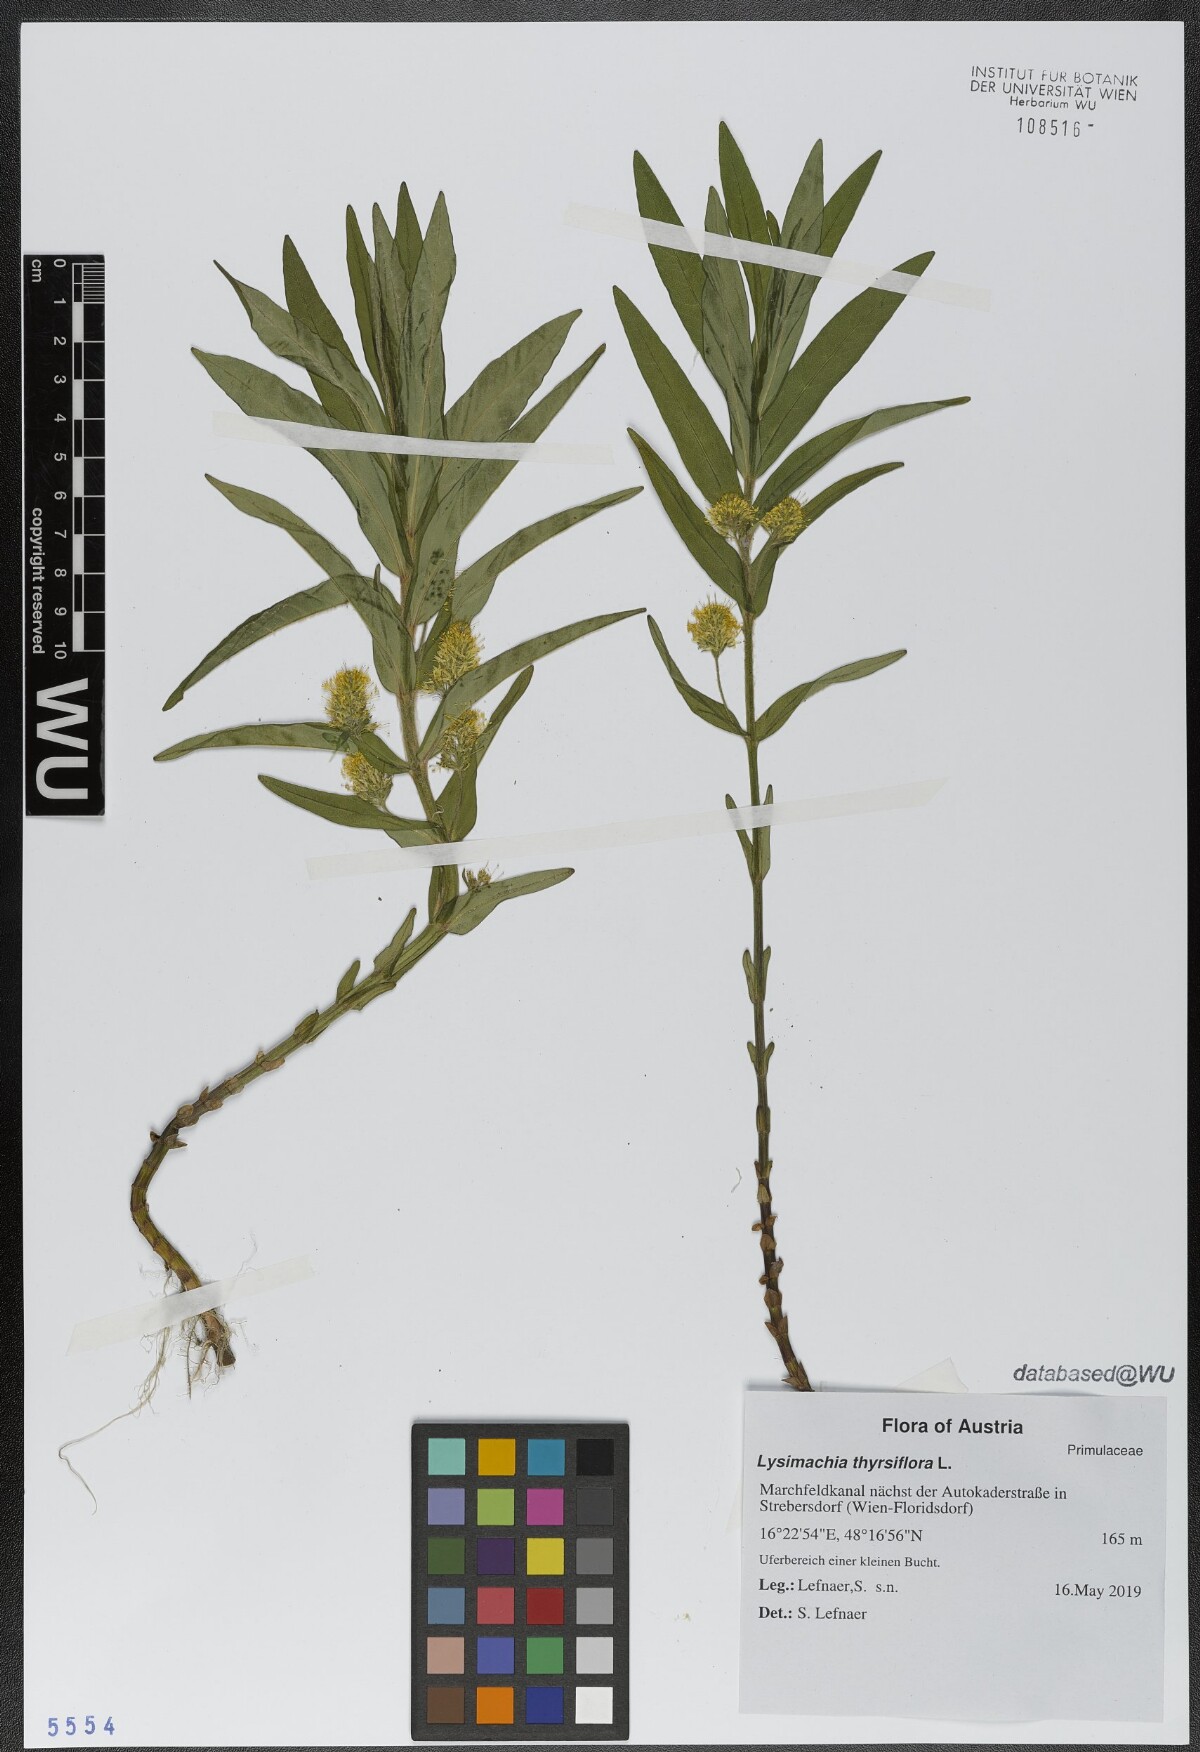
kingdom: Plantae
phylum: Tracheophyta
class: Magnoliopsida
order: Ericales
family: Primulaceae
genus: Lysimachia
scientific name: Lysimachia thyrsiflora
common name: Tufted loosestrife
